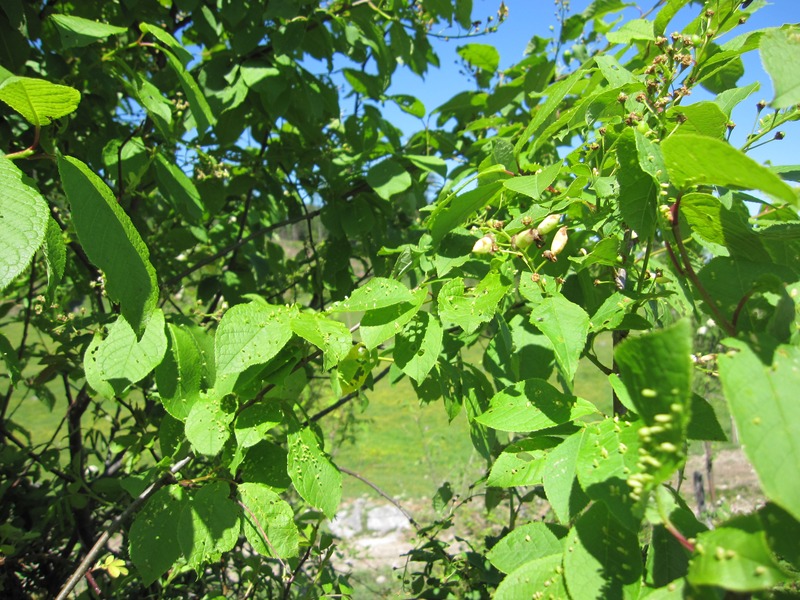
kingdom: Fungi
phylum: Ascomycota
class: Taphrinomycetes
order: Taphrinales
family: Taphrinaceae
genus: Taphrina
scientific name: Taphrina padi
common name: Bird cherry pocket
